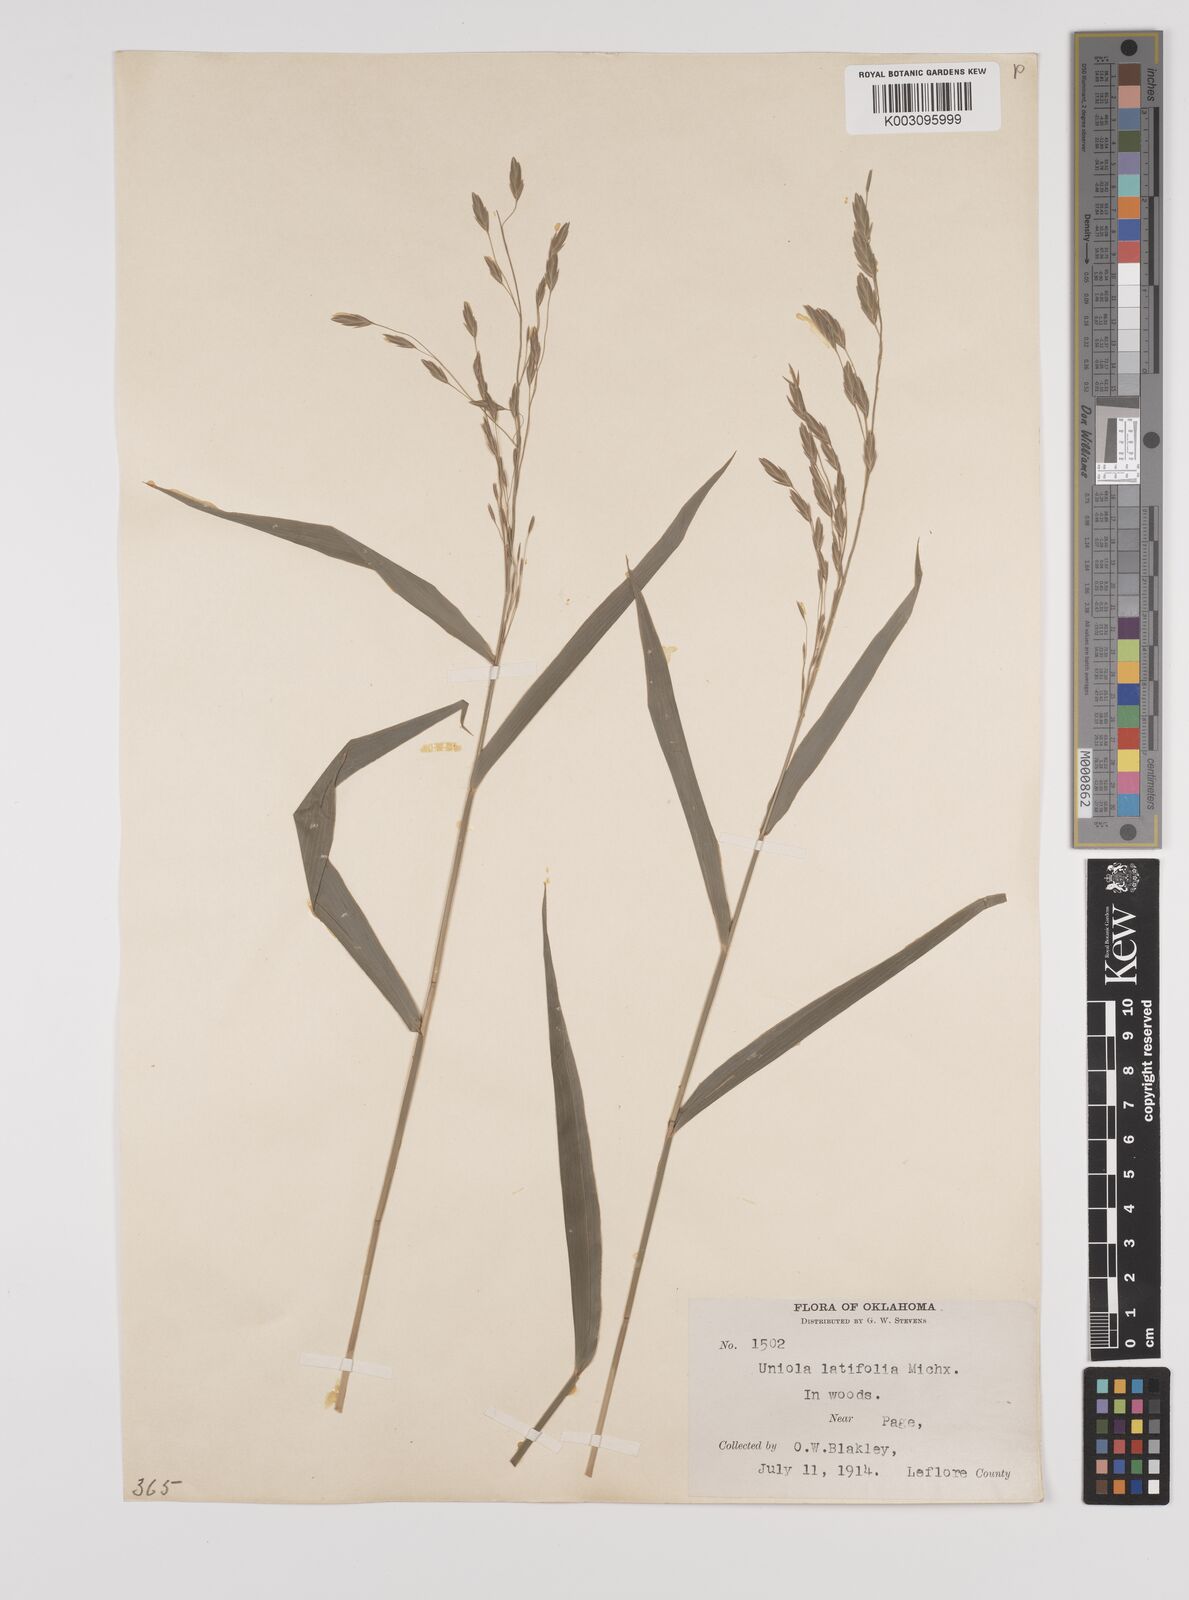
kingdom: Plantae
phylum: Tracheophyta
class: Liliopsida
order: Poales
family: Poaceae
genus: Chasmanthium
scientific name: Chasmanthium latifolium
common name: Broad-leaved chasmanthium
